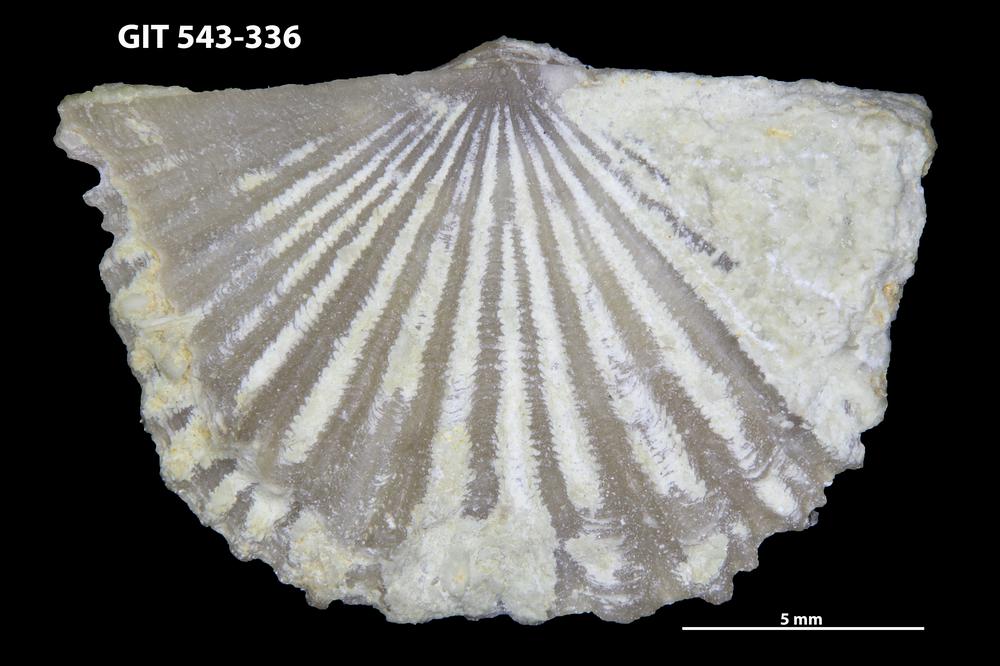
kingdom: Animalia
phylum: Brachiopoda
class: Rhynchonellata
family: Clitambonitidae
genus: Vellamo
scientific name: Vellamo
